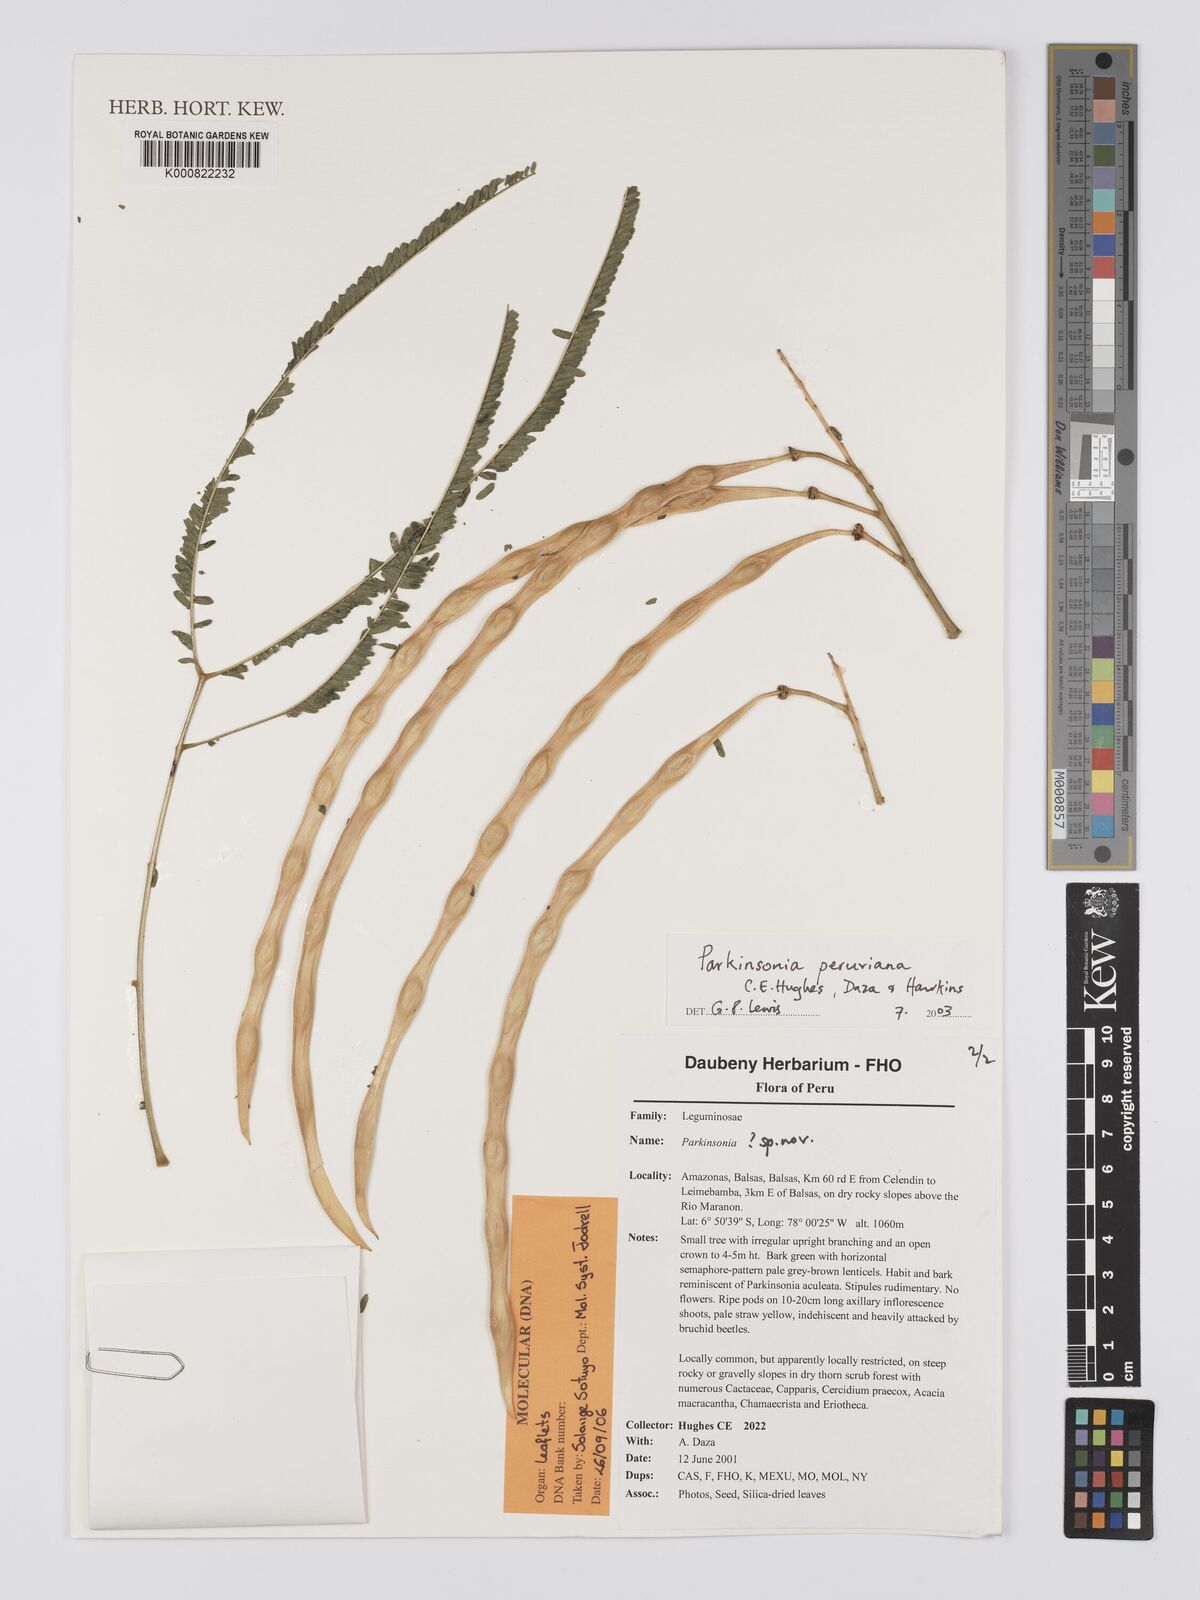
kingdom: Plantae
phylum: Tracheophyta
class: Magnoliopsida
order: Fabales
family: Fabaceae
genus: Parkinsonia
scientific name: Parkinsonia peruviana
